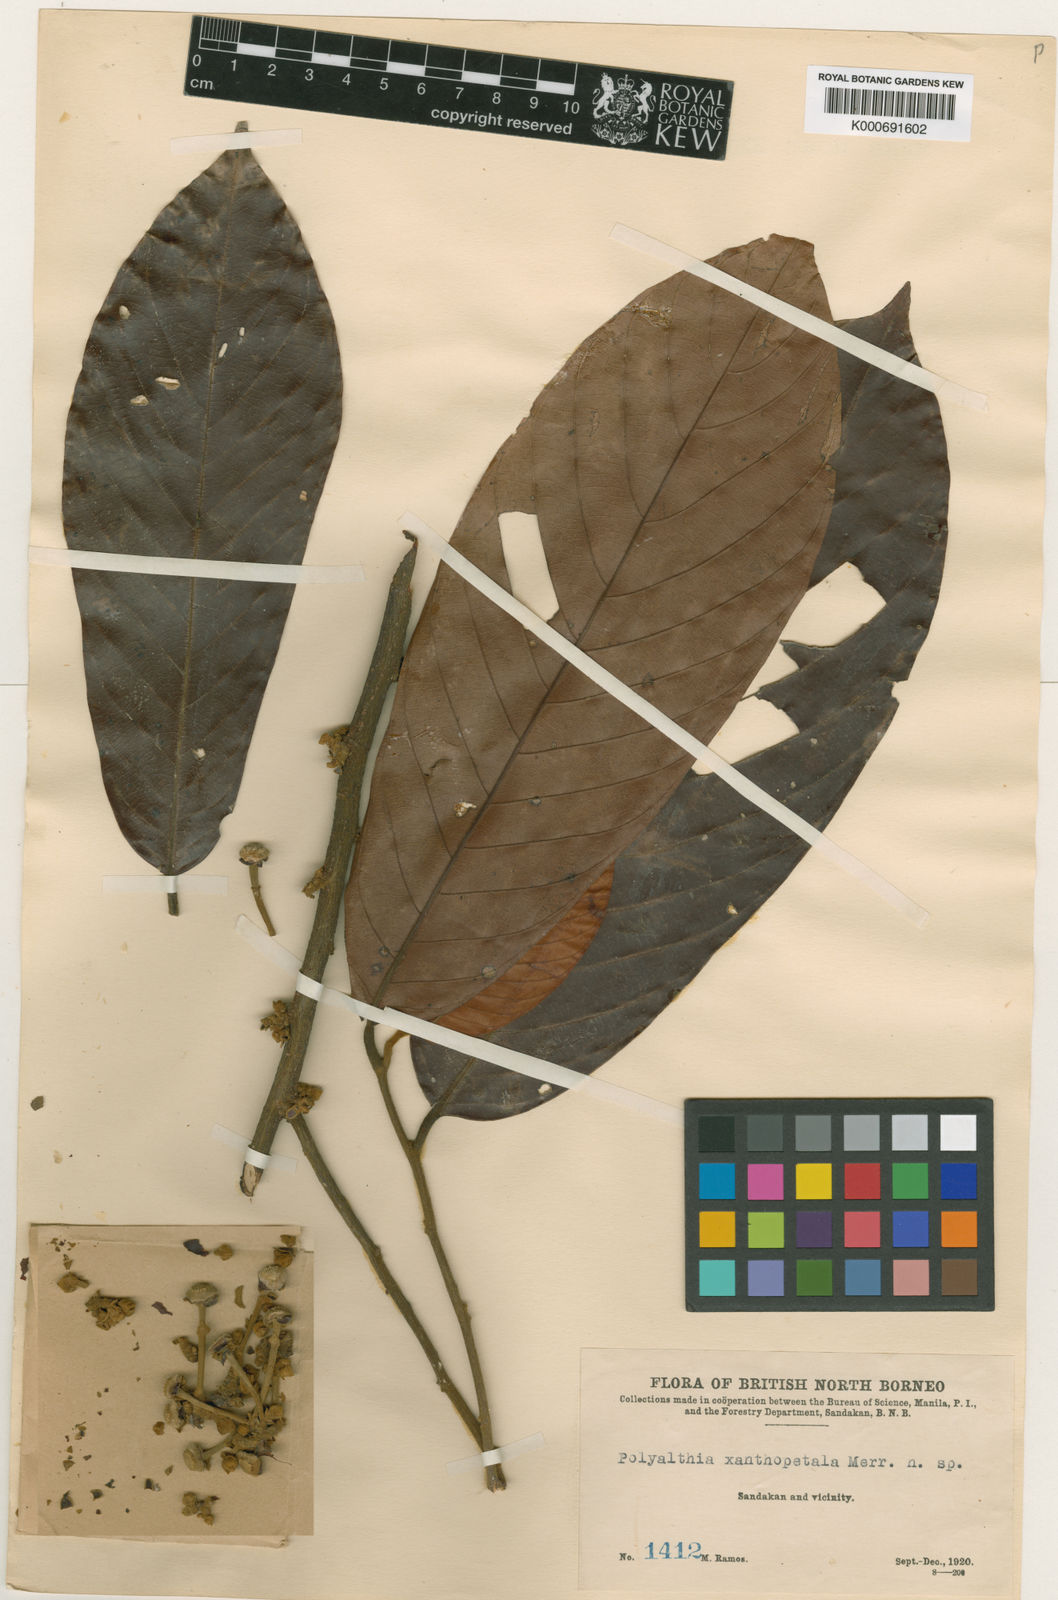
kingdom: Plantae
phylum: Tracheophyta
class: Magnoliopsida
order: Magnoliales
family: Annonaceae
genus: Anaxagorea
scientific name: Anaxagorea javanica
